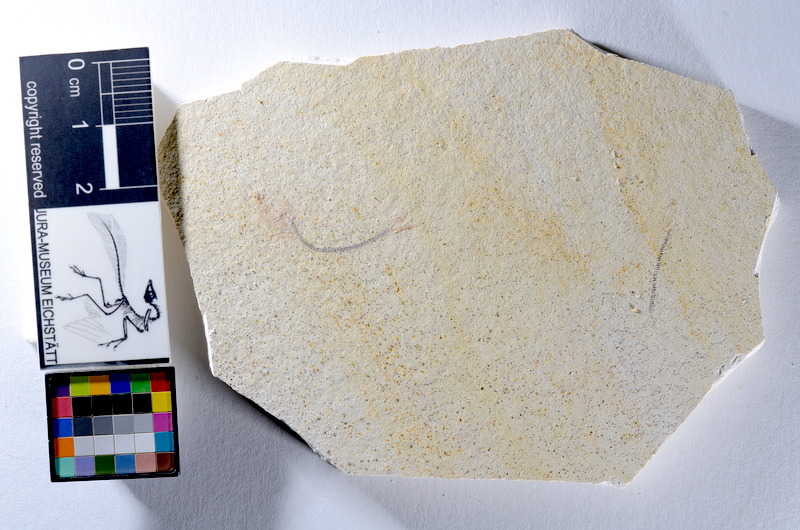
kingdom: Animalia
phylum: Chordata
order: Salmoniformes
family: Orthogonikleithridae
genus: Orthogonikleithrus
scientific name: Orthogonikleithrus hoelli
